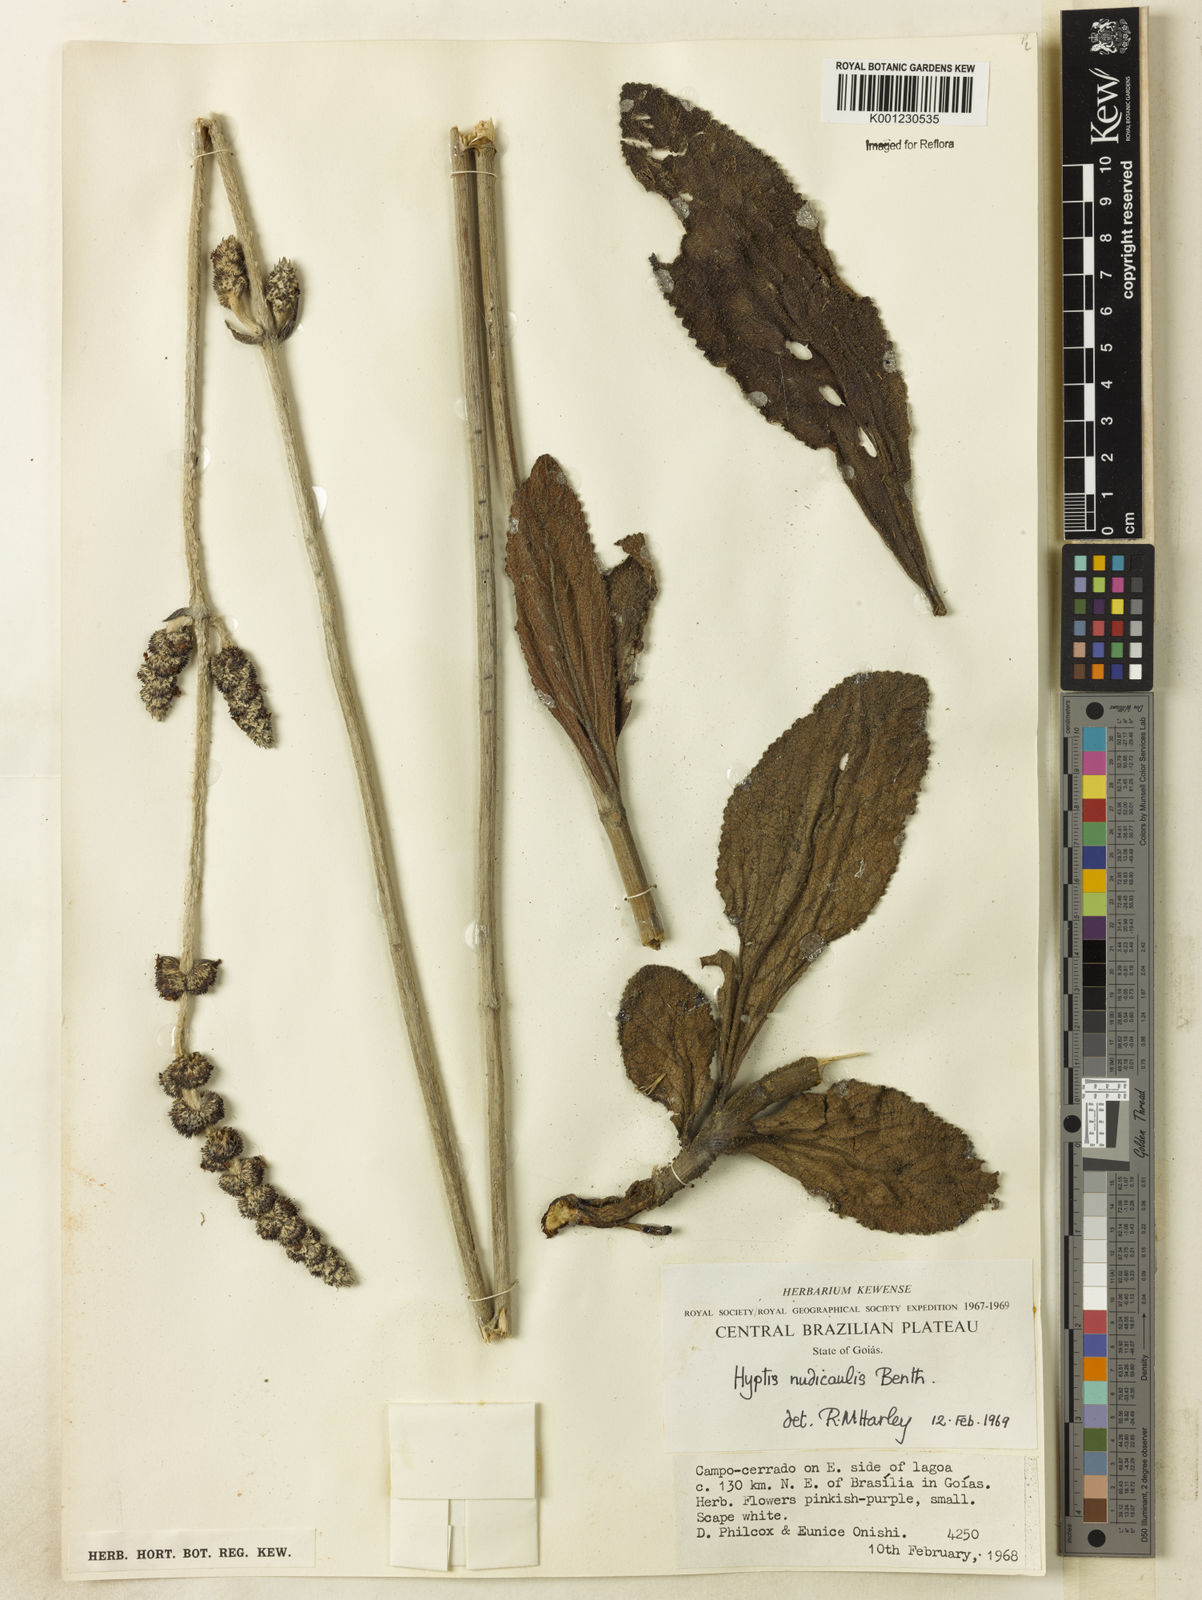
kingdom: Plantae
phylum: Tracheophyta
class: Magnoliopsida
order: Lamiales
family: Lamiaceae
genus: Hyptis
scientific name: Hyptis nudicaulis
